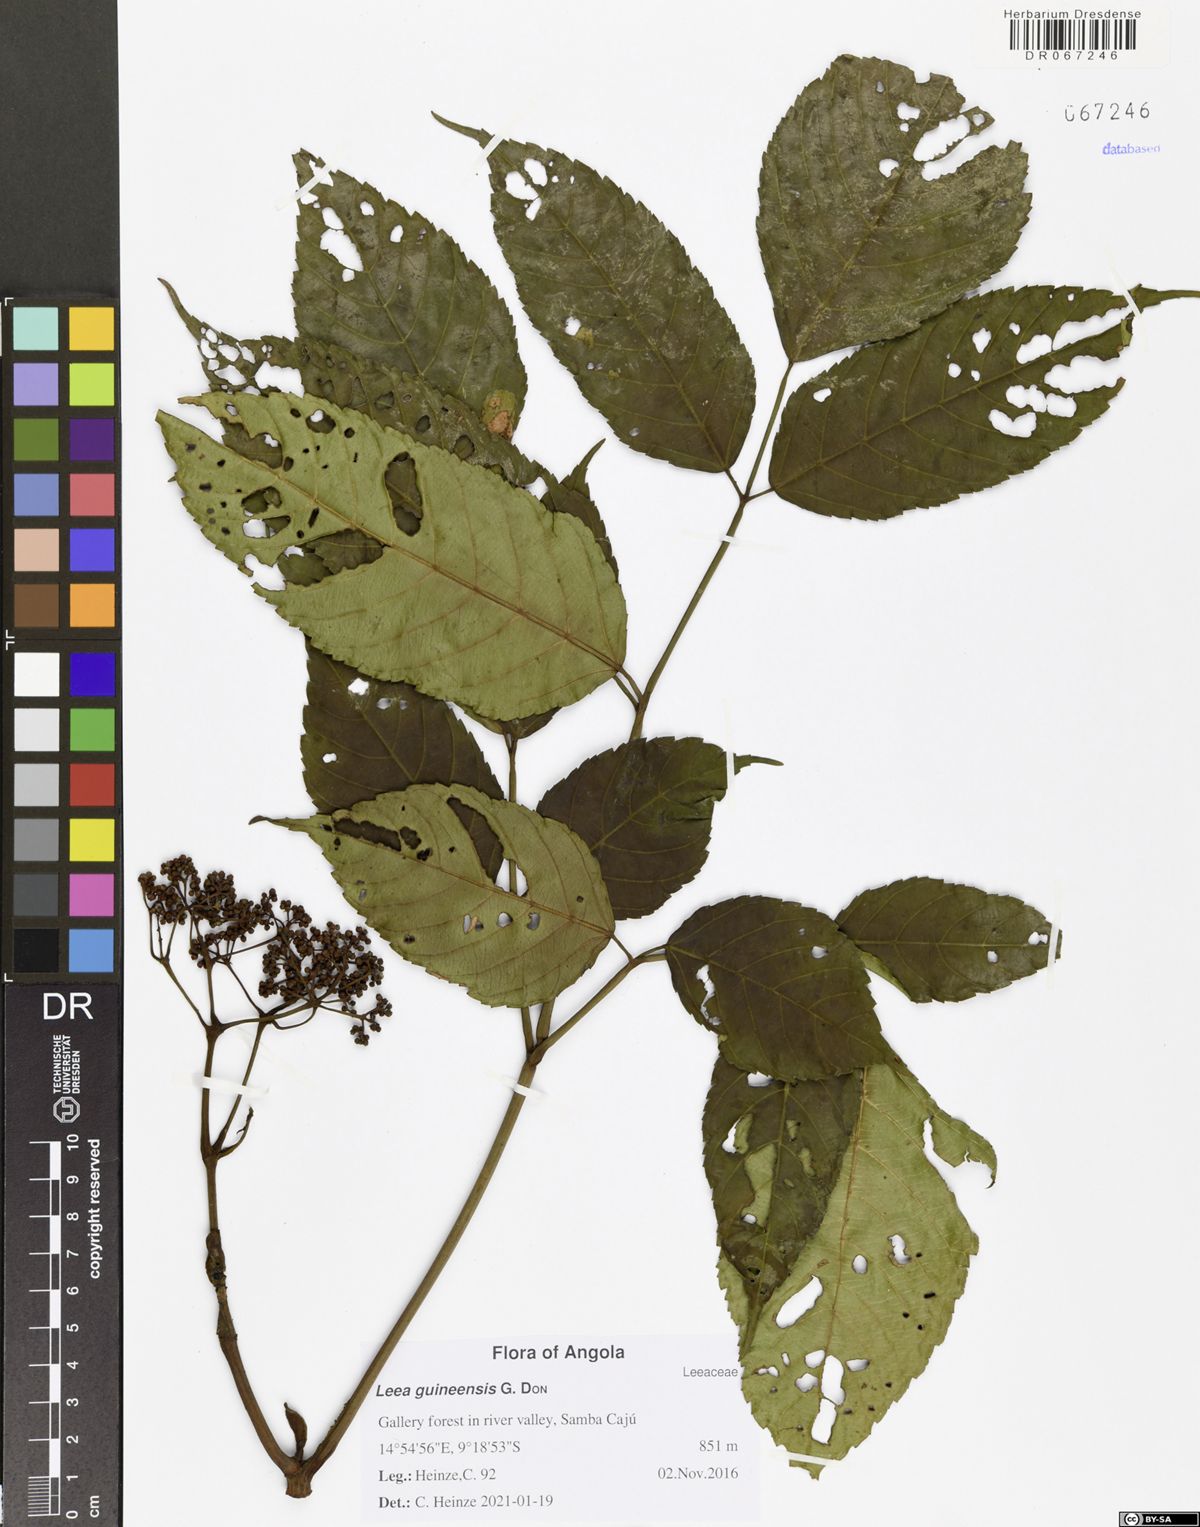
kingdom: Plantae
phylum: Tracheophyta
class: Magnoliopsida
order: Vitales
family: Vitaceae
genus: Leea
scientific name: Leea guineensis
